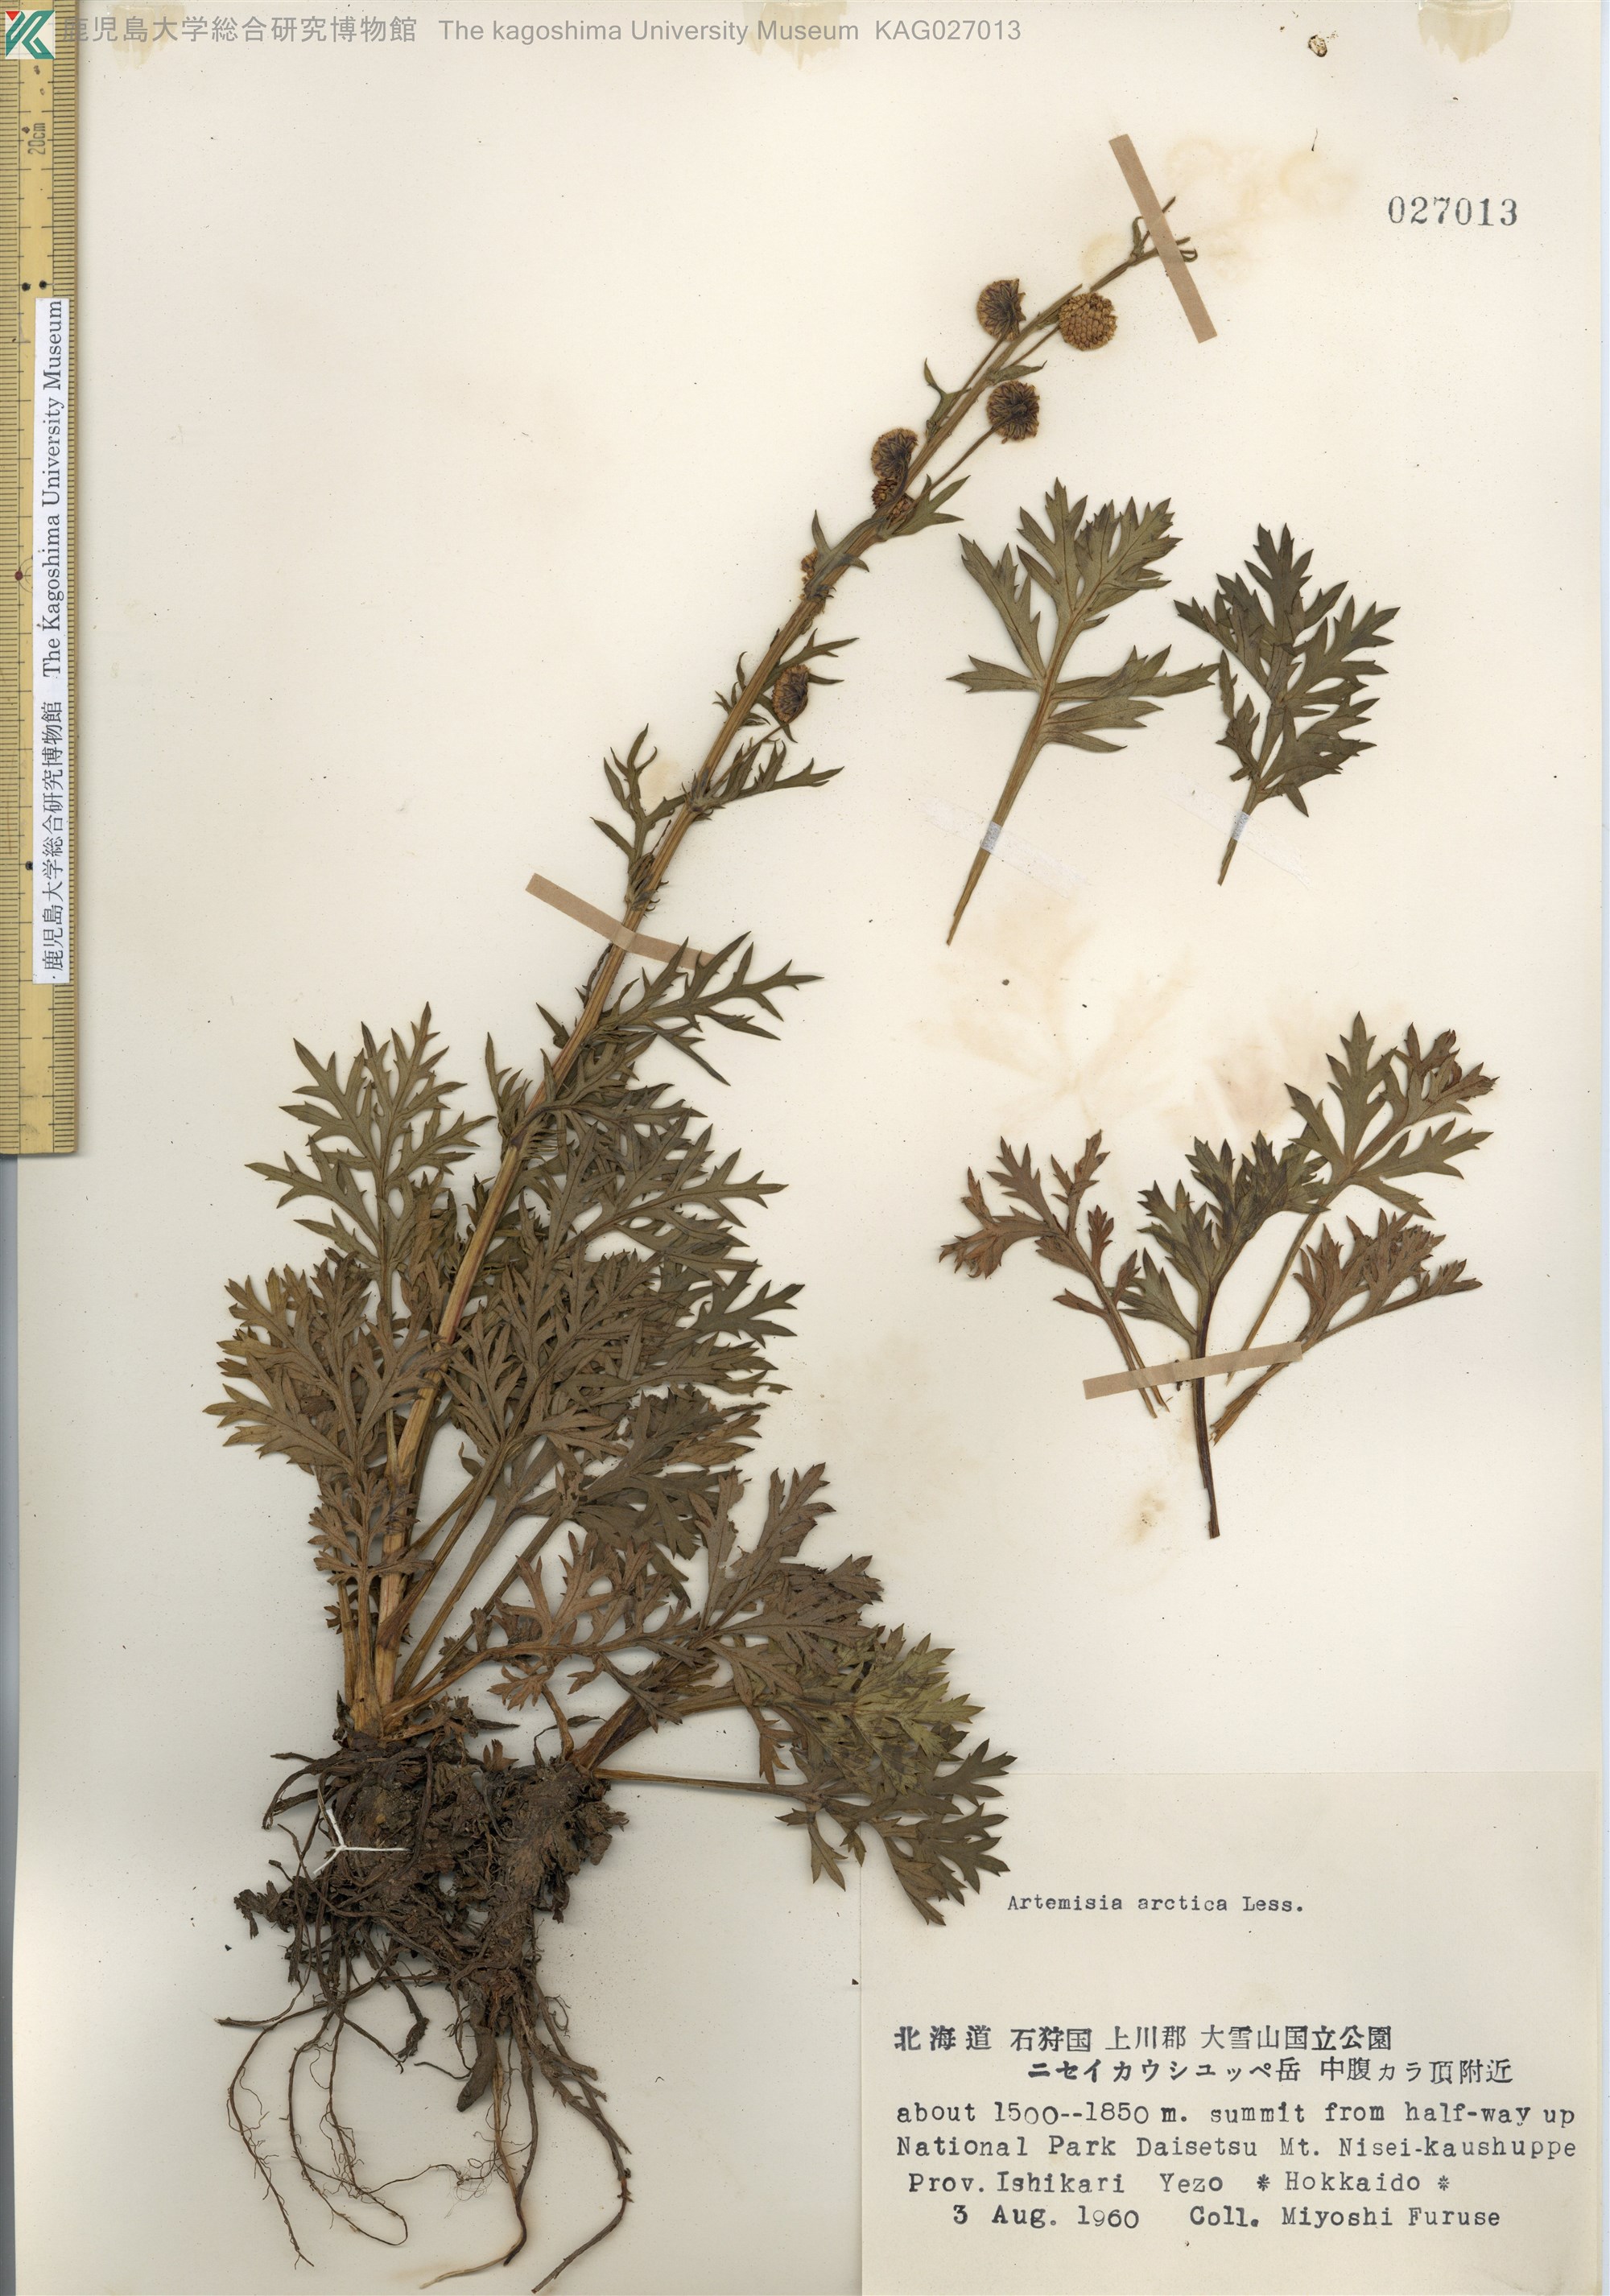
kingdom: Plantae
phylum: Tracheophyta
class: Magnoliopsida
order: Asterales
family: Asteraceae
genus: Artemisia
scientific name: Artemisia arctica
